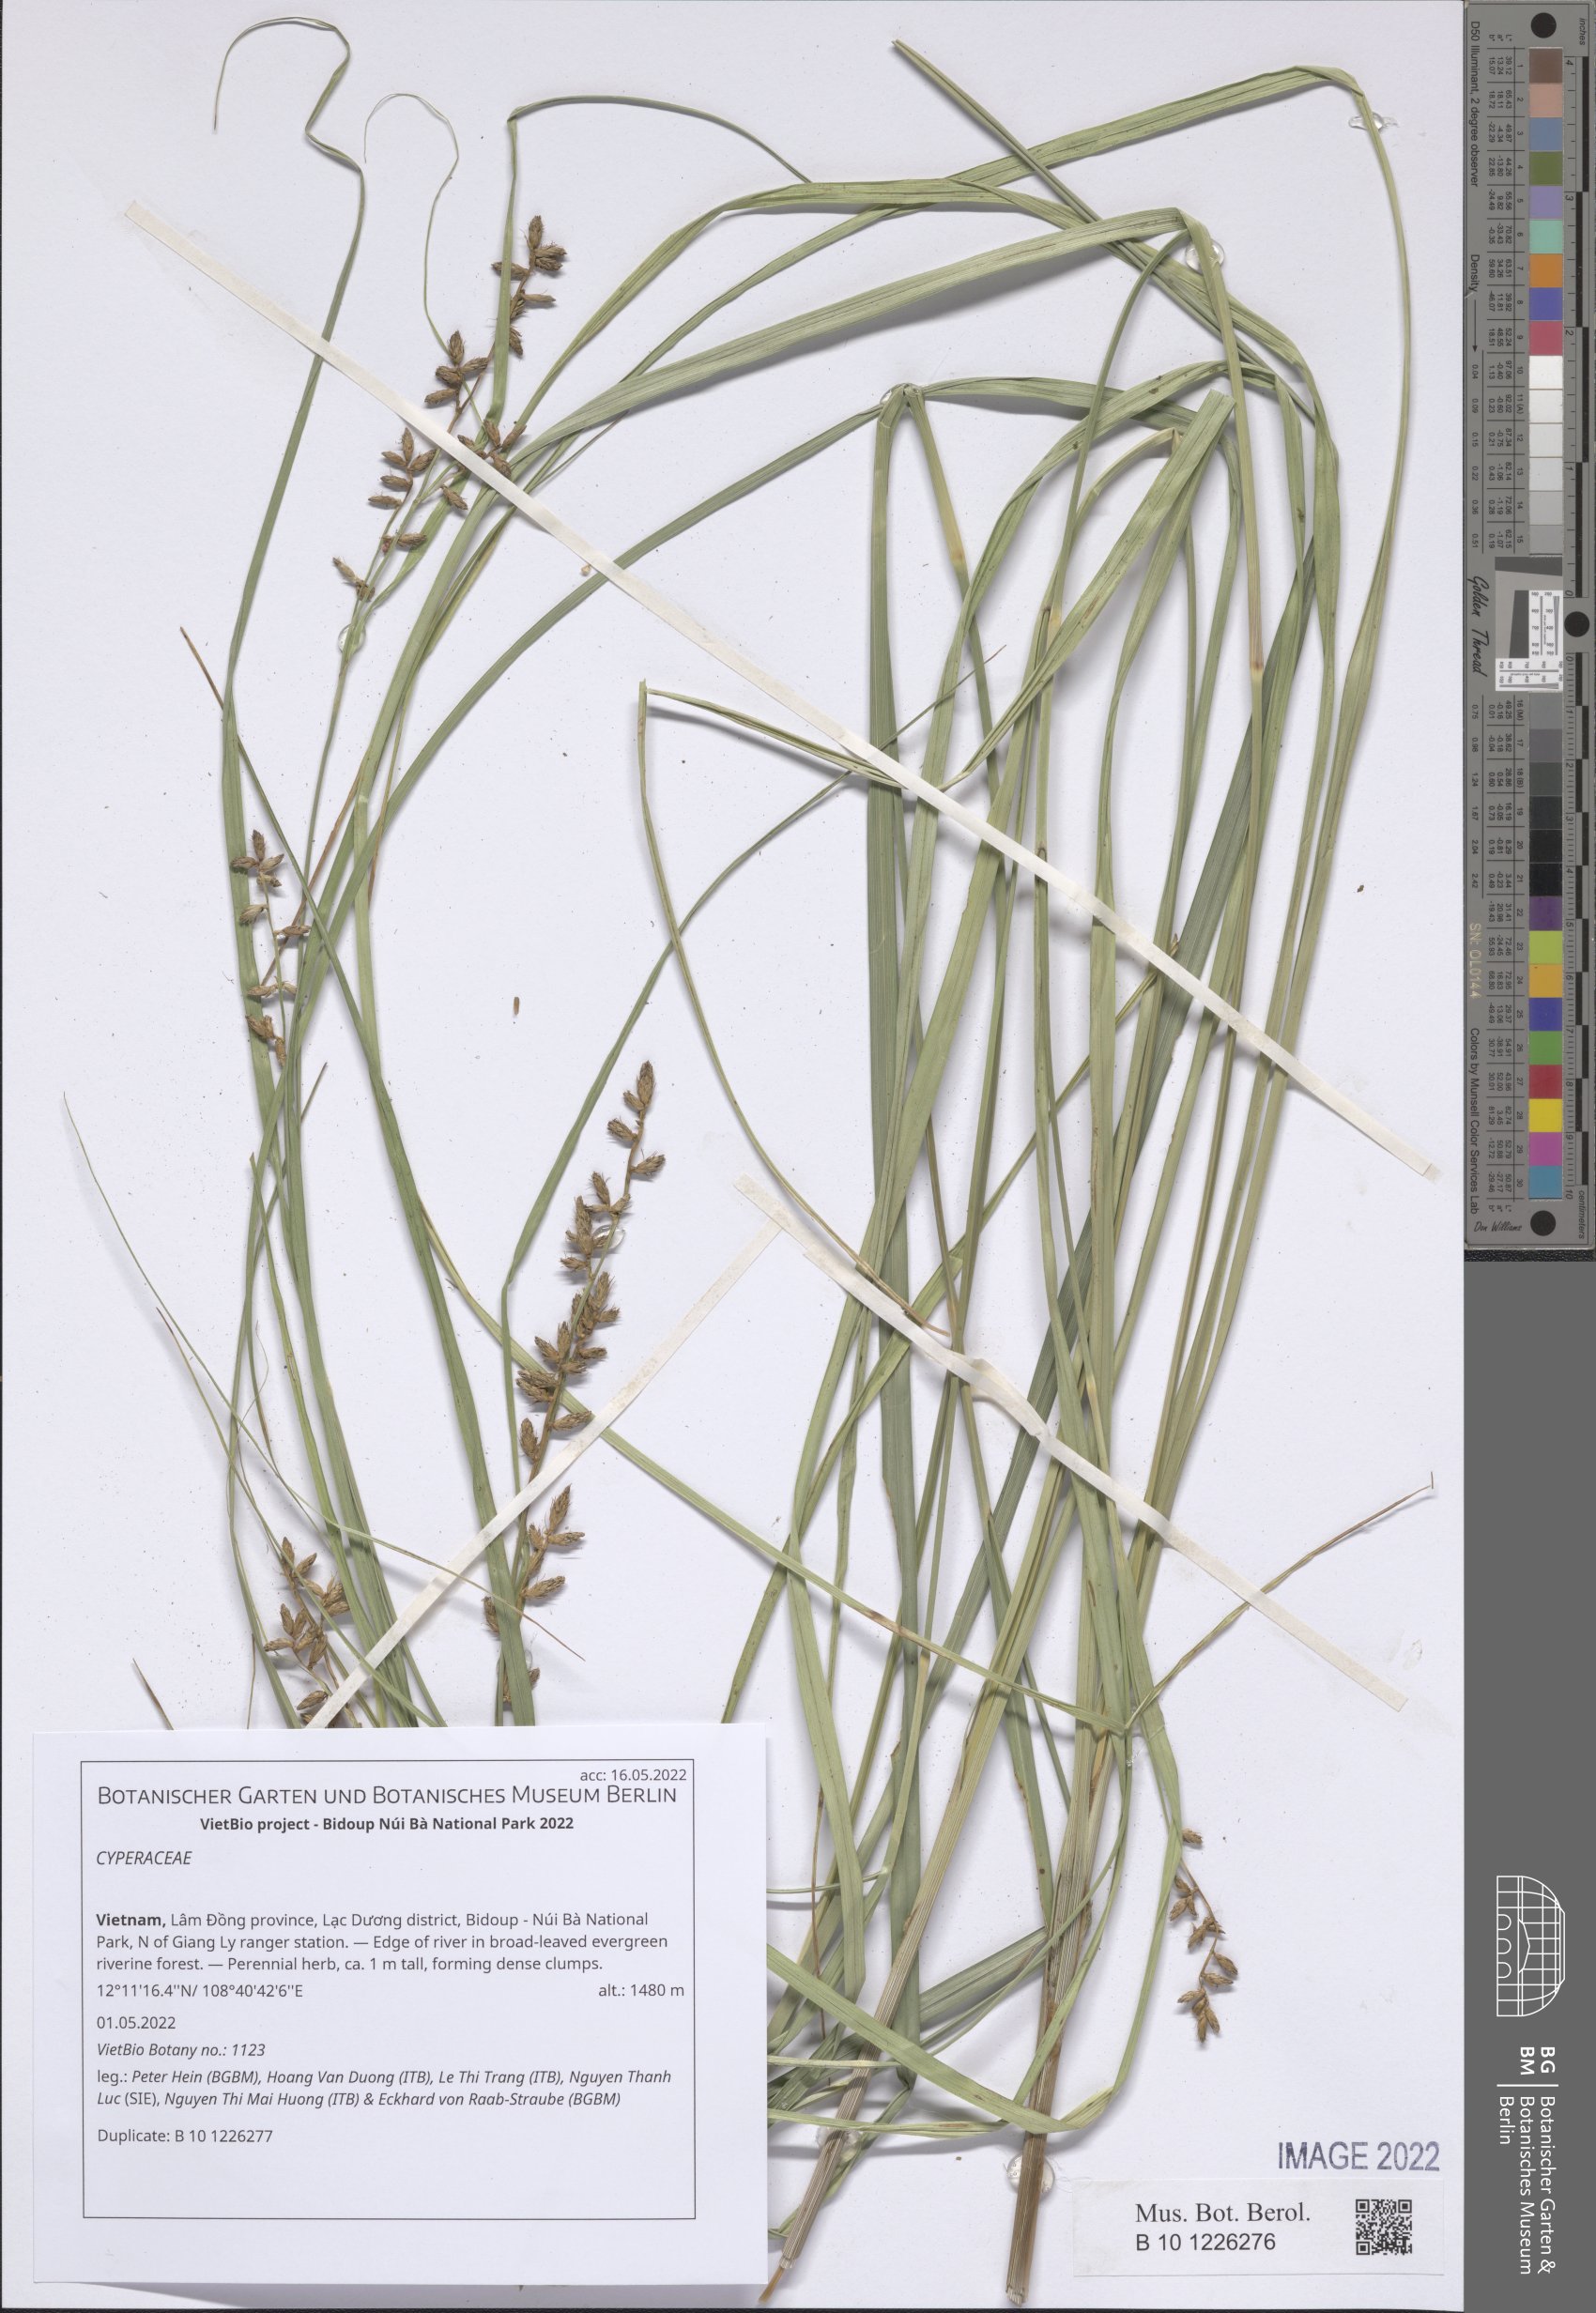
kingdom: Plantae
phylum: Tracheophyta
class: Liliopsida
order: Poales
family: Cyperaceae
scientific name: Cyperaceae
